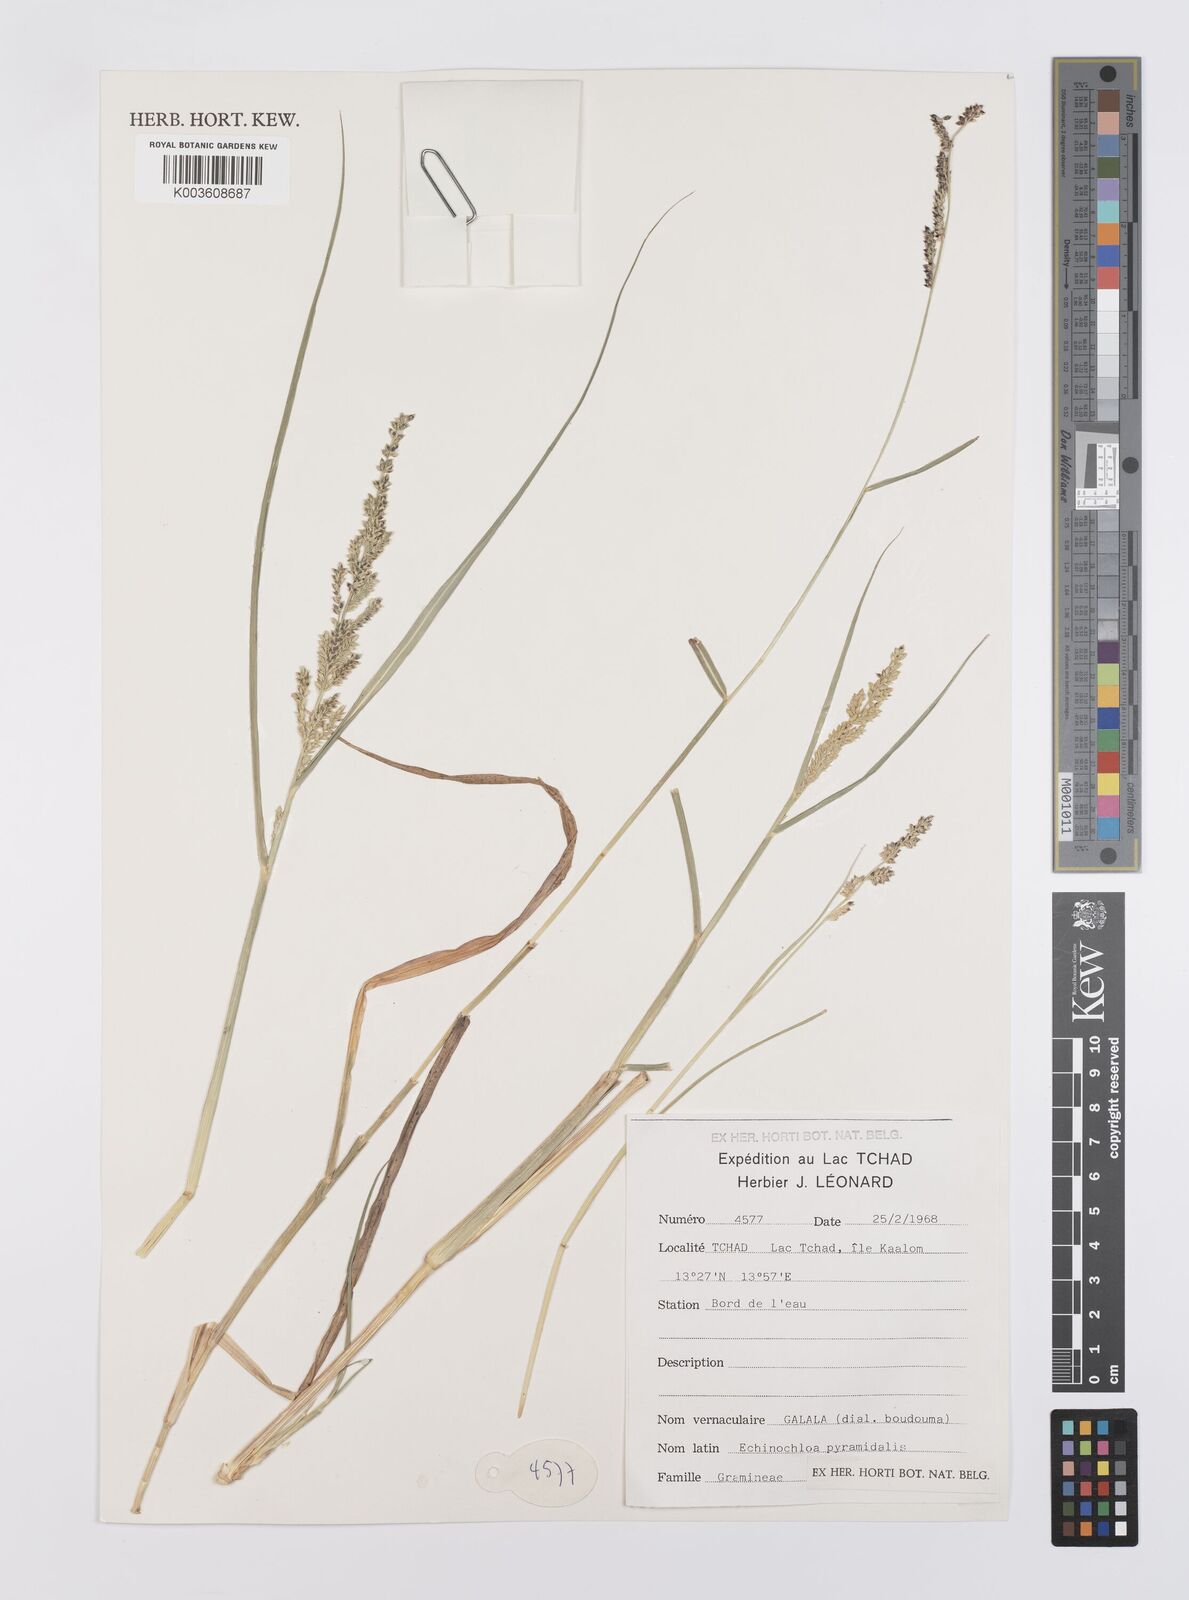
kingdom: Plantae
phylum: Tracheophyta
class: Liliopsida
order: Poales
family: Poaceae
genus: Echinochloa
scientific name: Echinochloa pyramidalis
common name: Antelope grass
